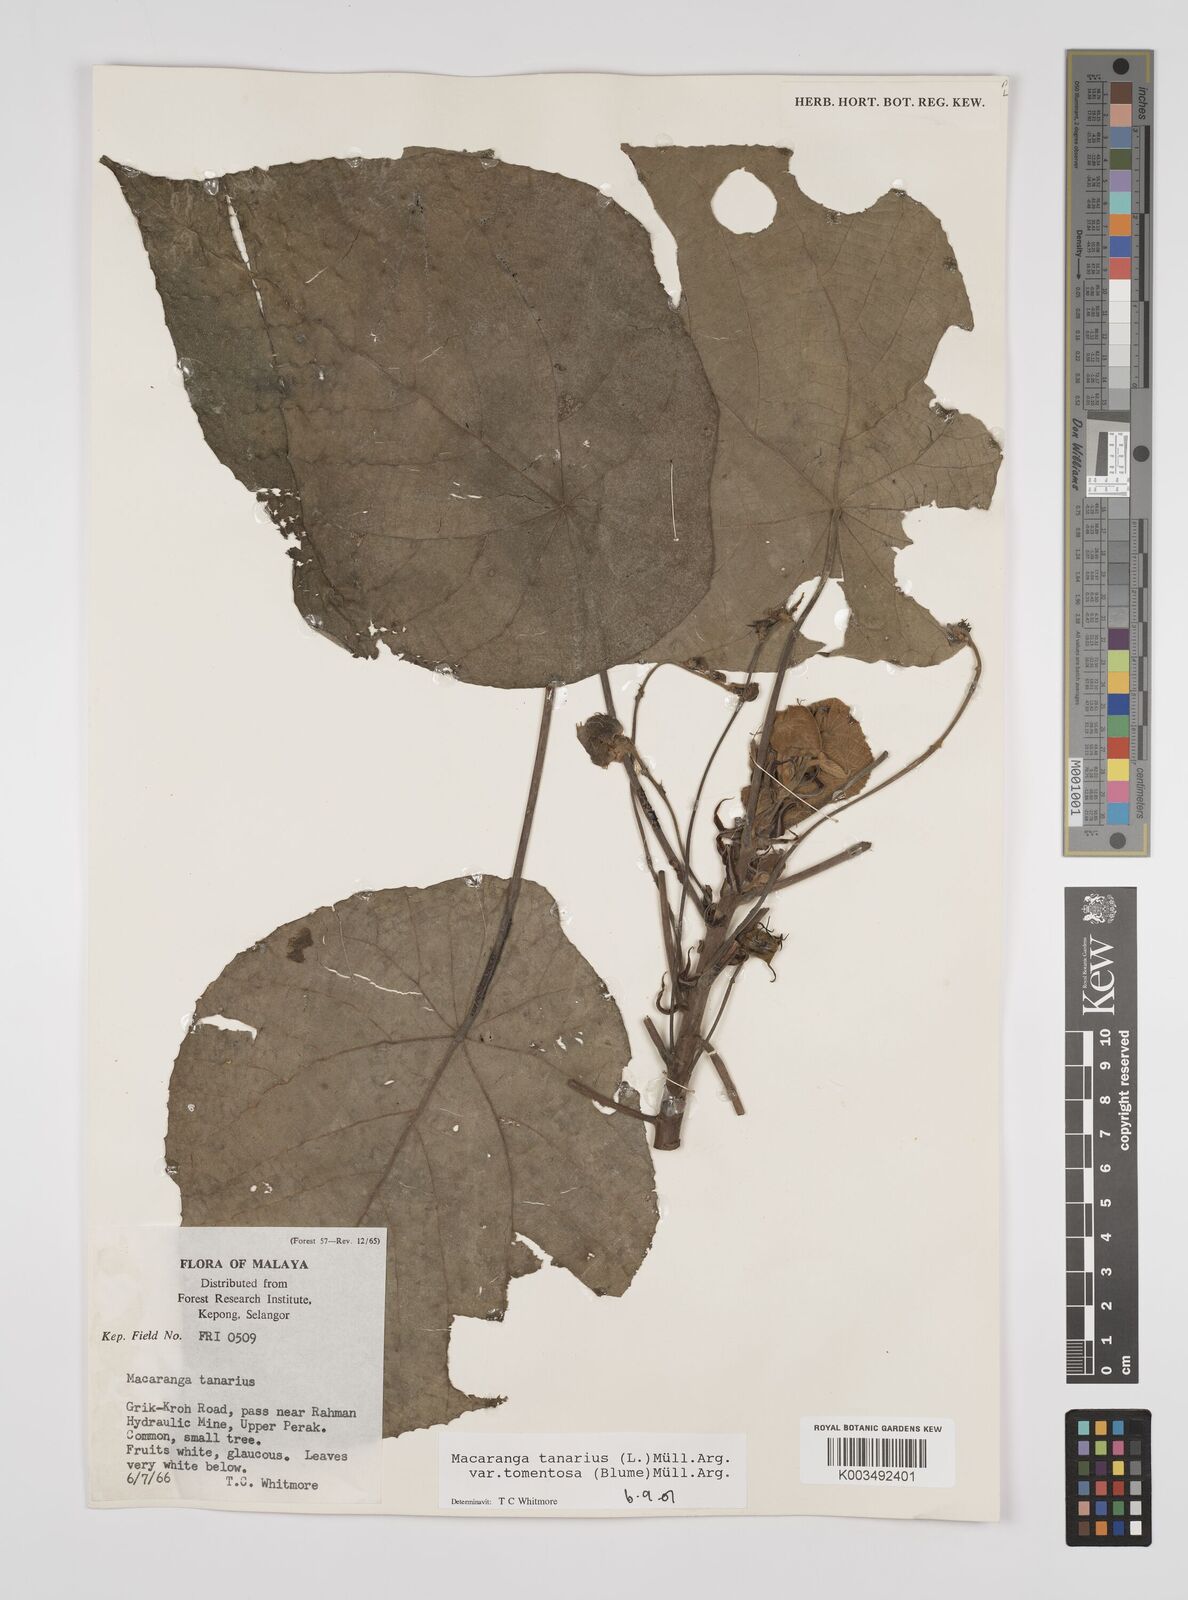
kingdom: Plantae
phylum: Tracheophyta
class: Magnoliopsida
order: Malpighiales
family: Euphorbiaceae
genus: Macaranga
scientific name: Macaranga tanarius
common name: Parasol leaf tree
